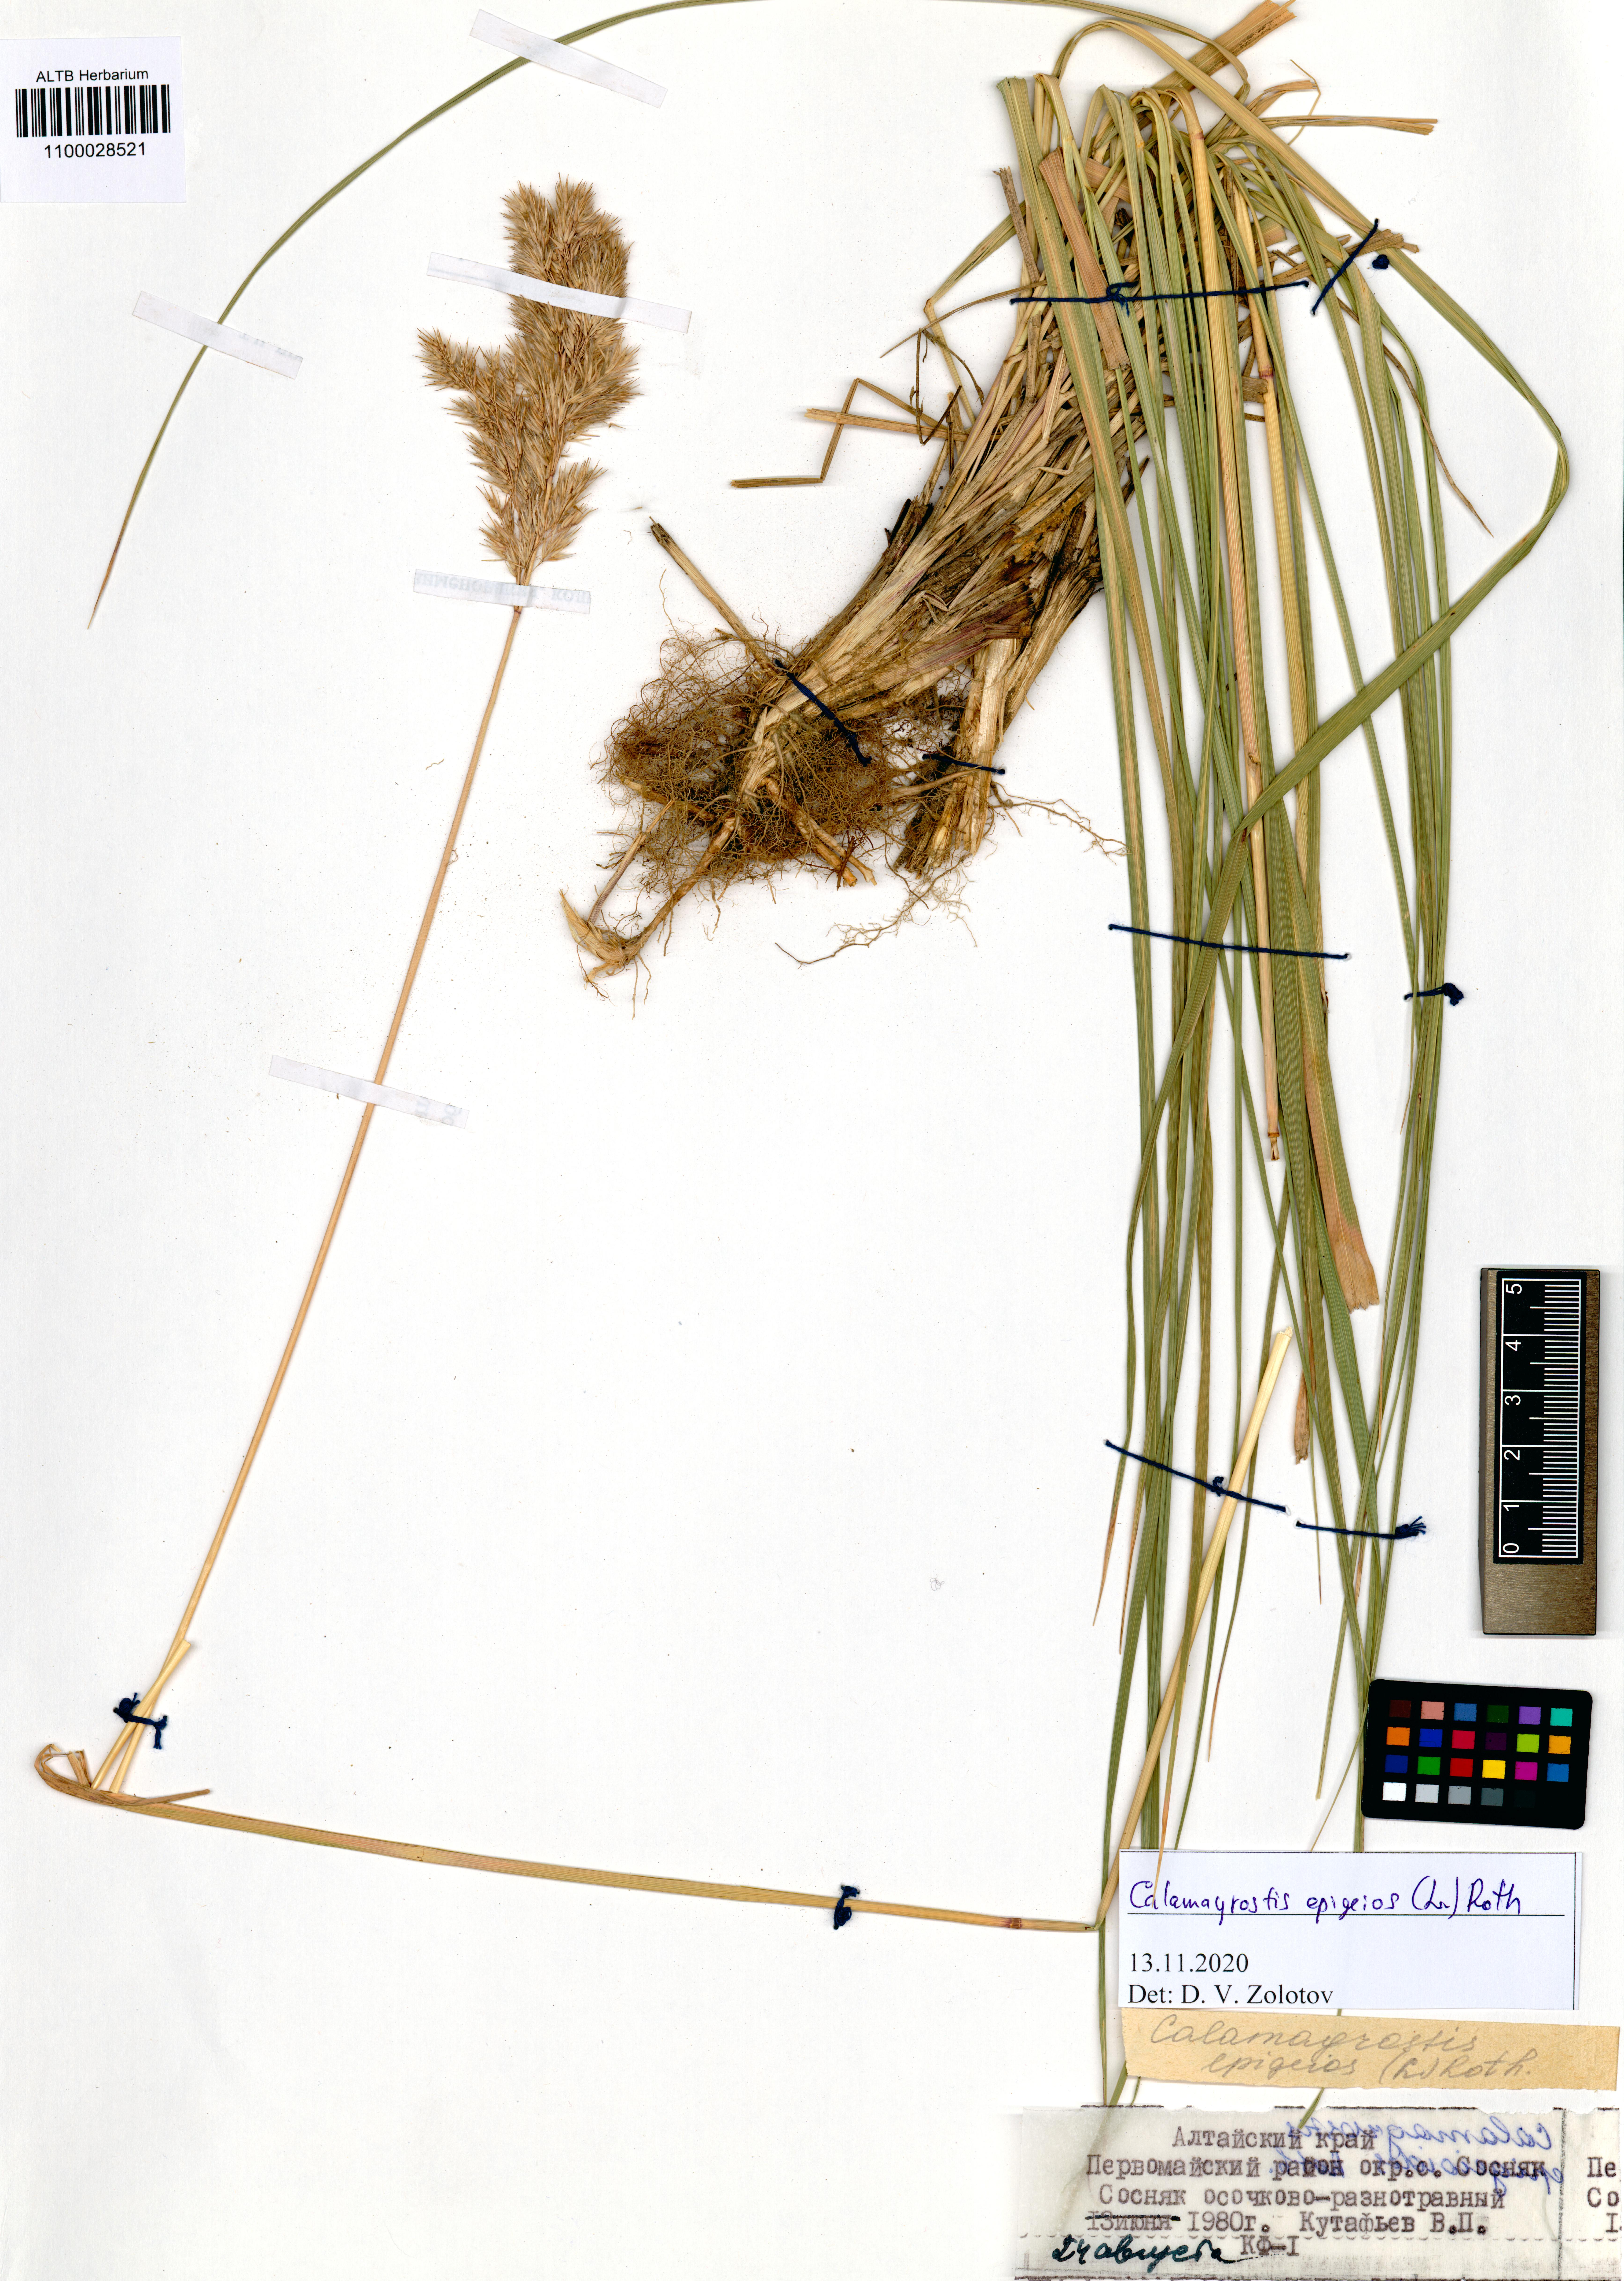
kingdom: Plantae
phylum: Tracheophyta
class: Liliopsida
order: Poales
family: Poaceae
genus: Calamagrostis
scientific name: Calamagrostis epigejos
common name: Wood small-reed
